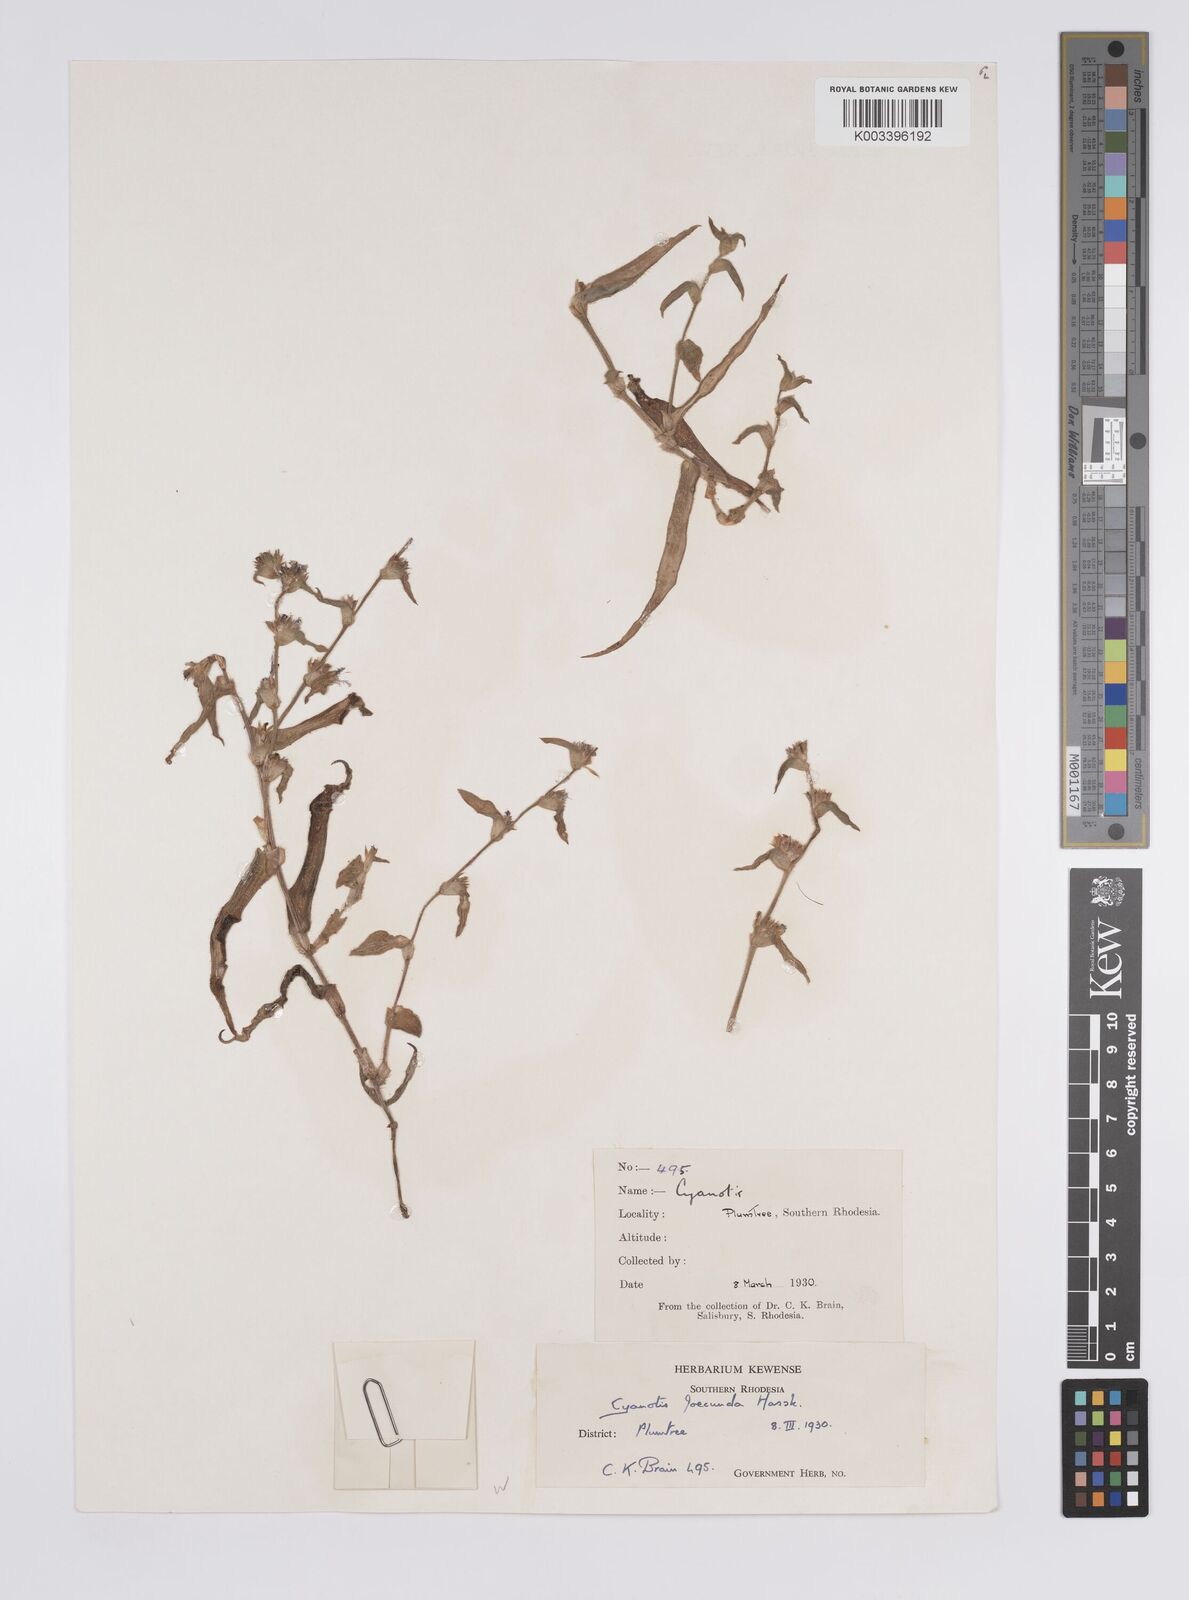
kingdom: Plantae
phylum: Tracheophyta
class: Liliopsida
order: Commelinales
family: Commelinaceae
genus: Cyanotis
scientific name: Cyanotis foecunda
